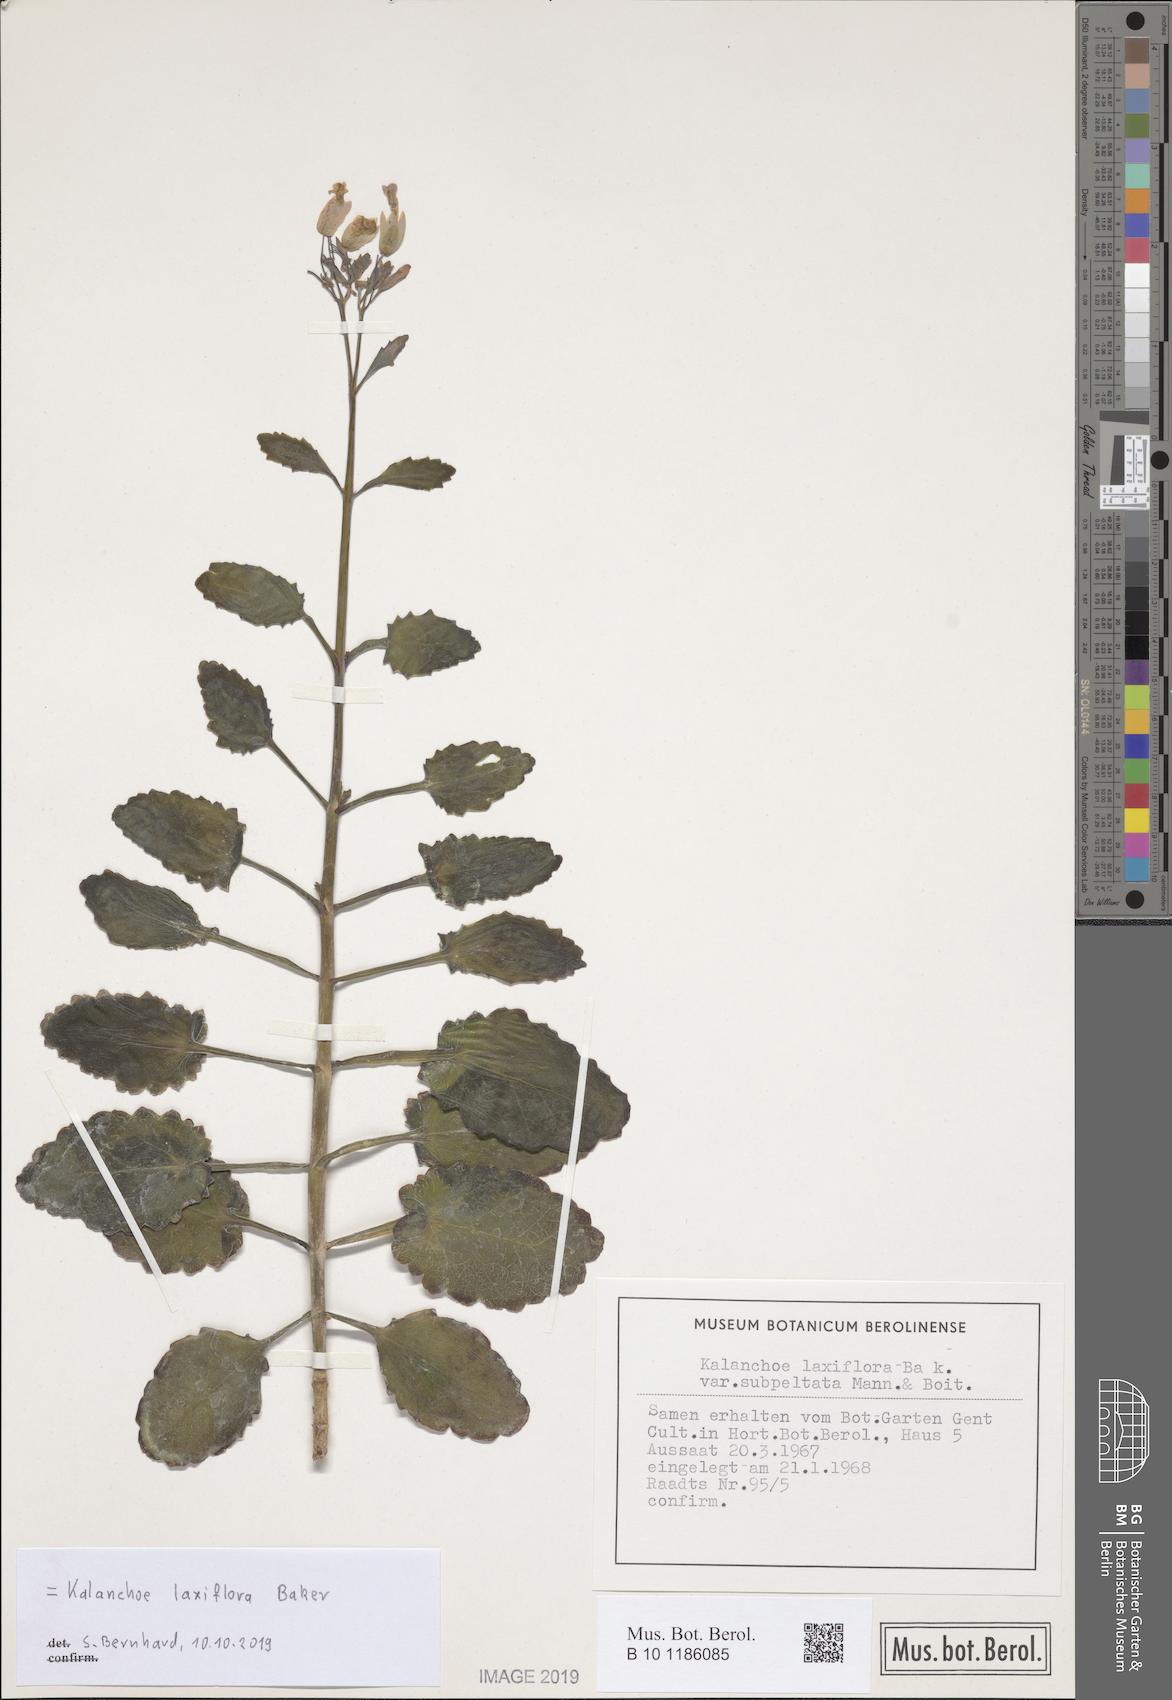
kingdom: Plantae
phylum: Tracheophyta
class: Magnoliopsida
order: Saxifragales
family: Crassulaceae
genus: Kalanchoe
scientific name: Kalanchoe laxiflora
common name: Milky widow's thrill
